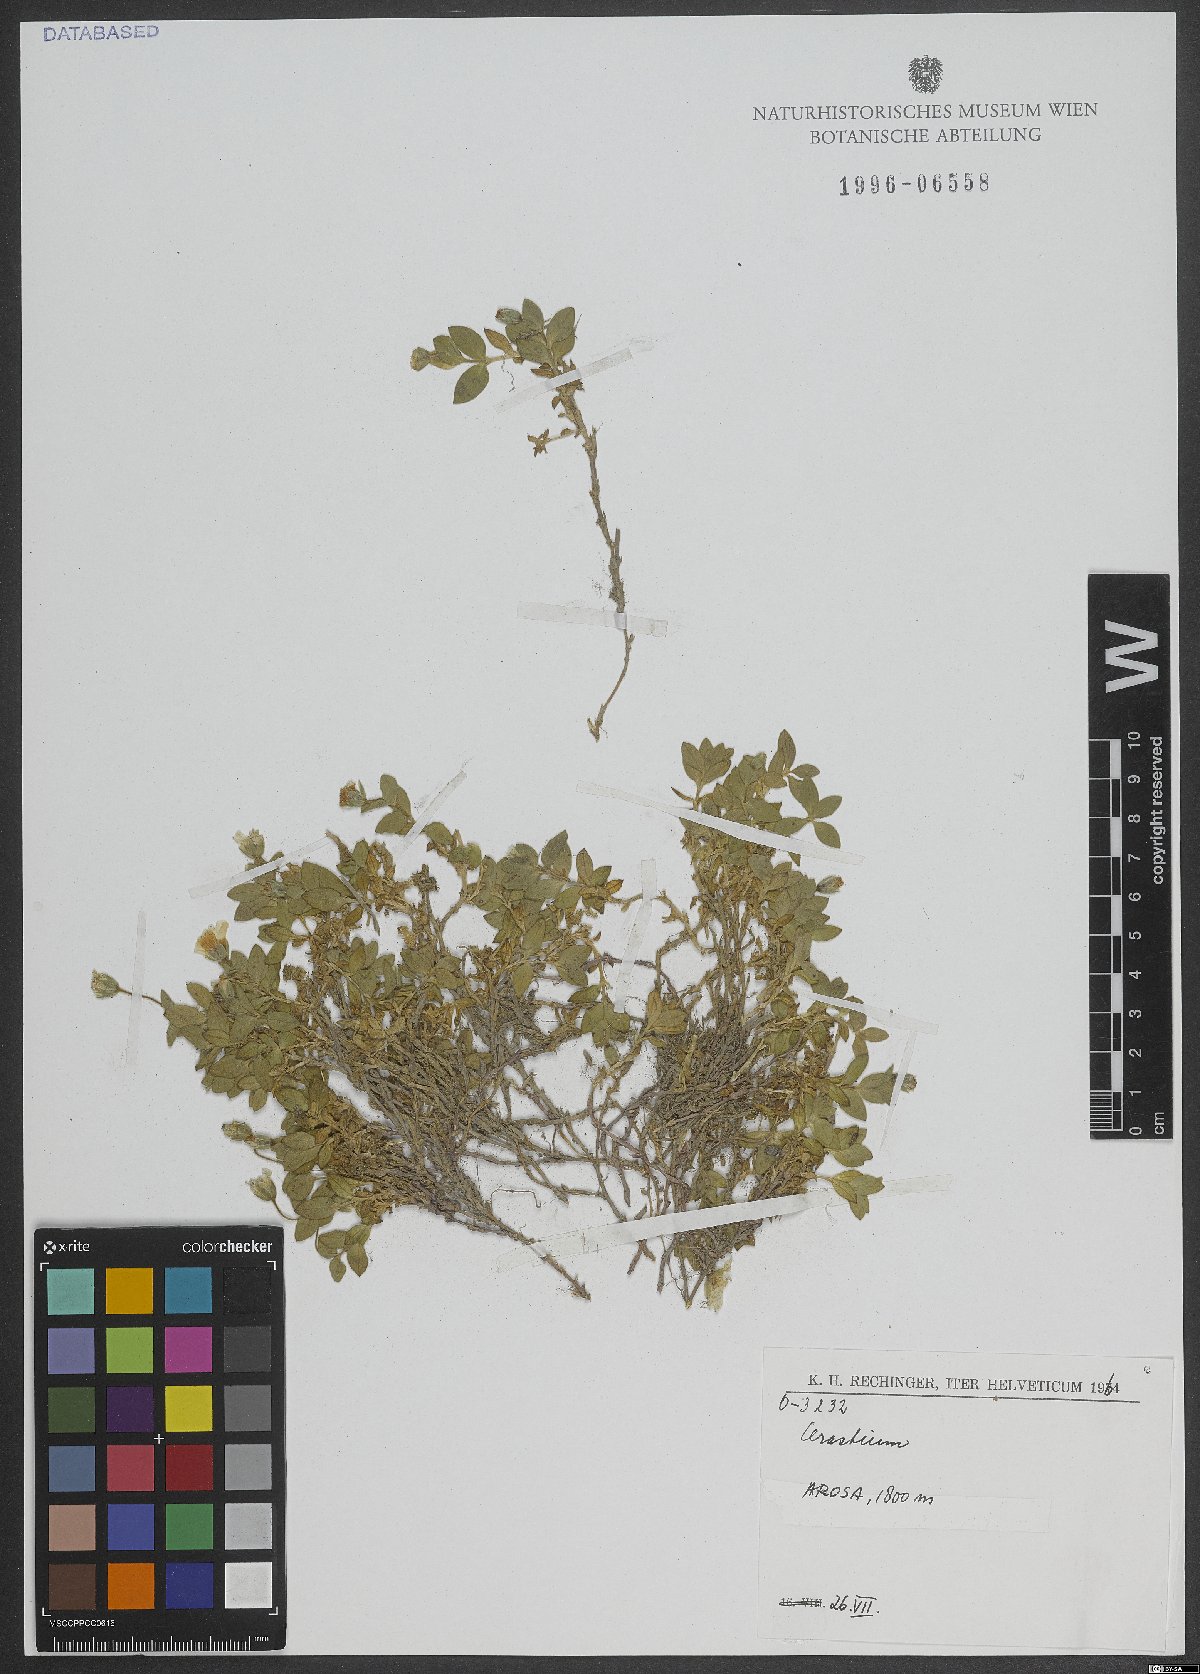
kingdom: Plantae
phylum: Tracheophyta
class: Magnoliopsida
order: Caryophyllales
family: Caryophyllaceae
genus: Cerastium
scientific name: Cerastium
